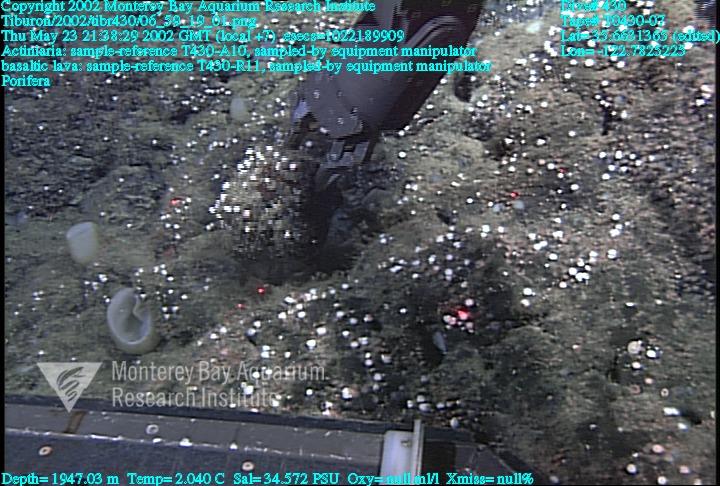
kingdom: Animalia
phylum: Porifera
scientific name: Porifera
